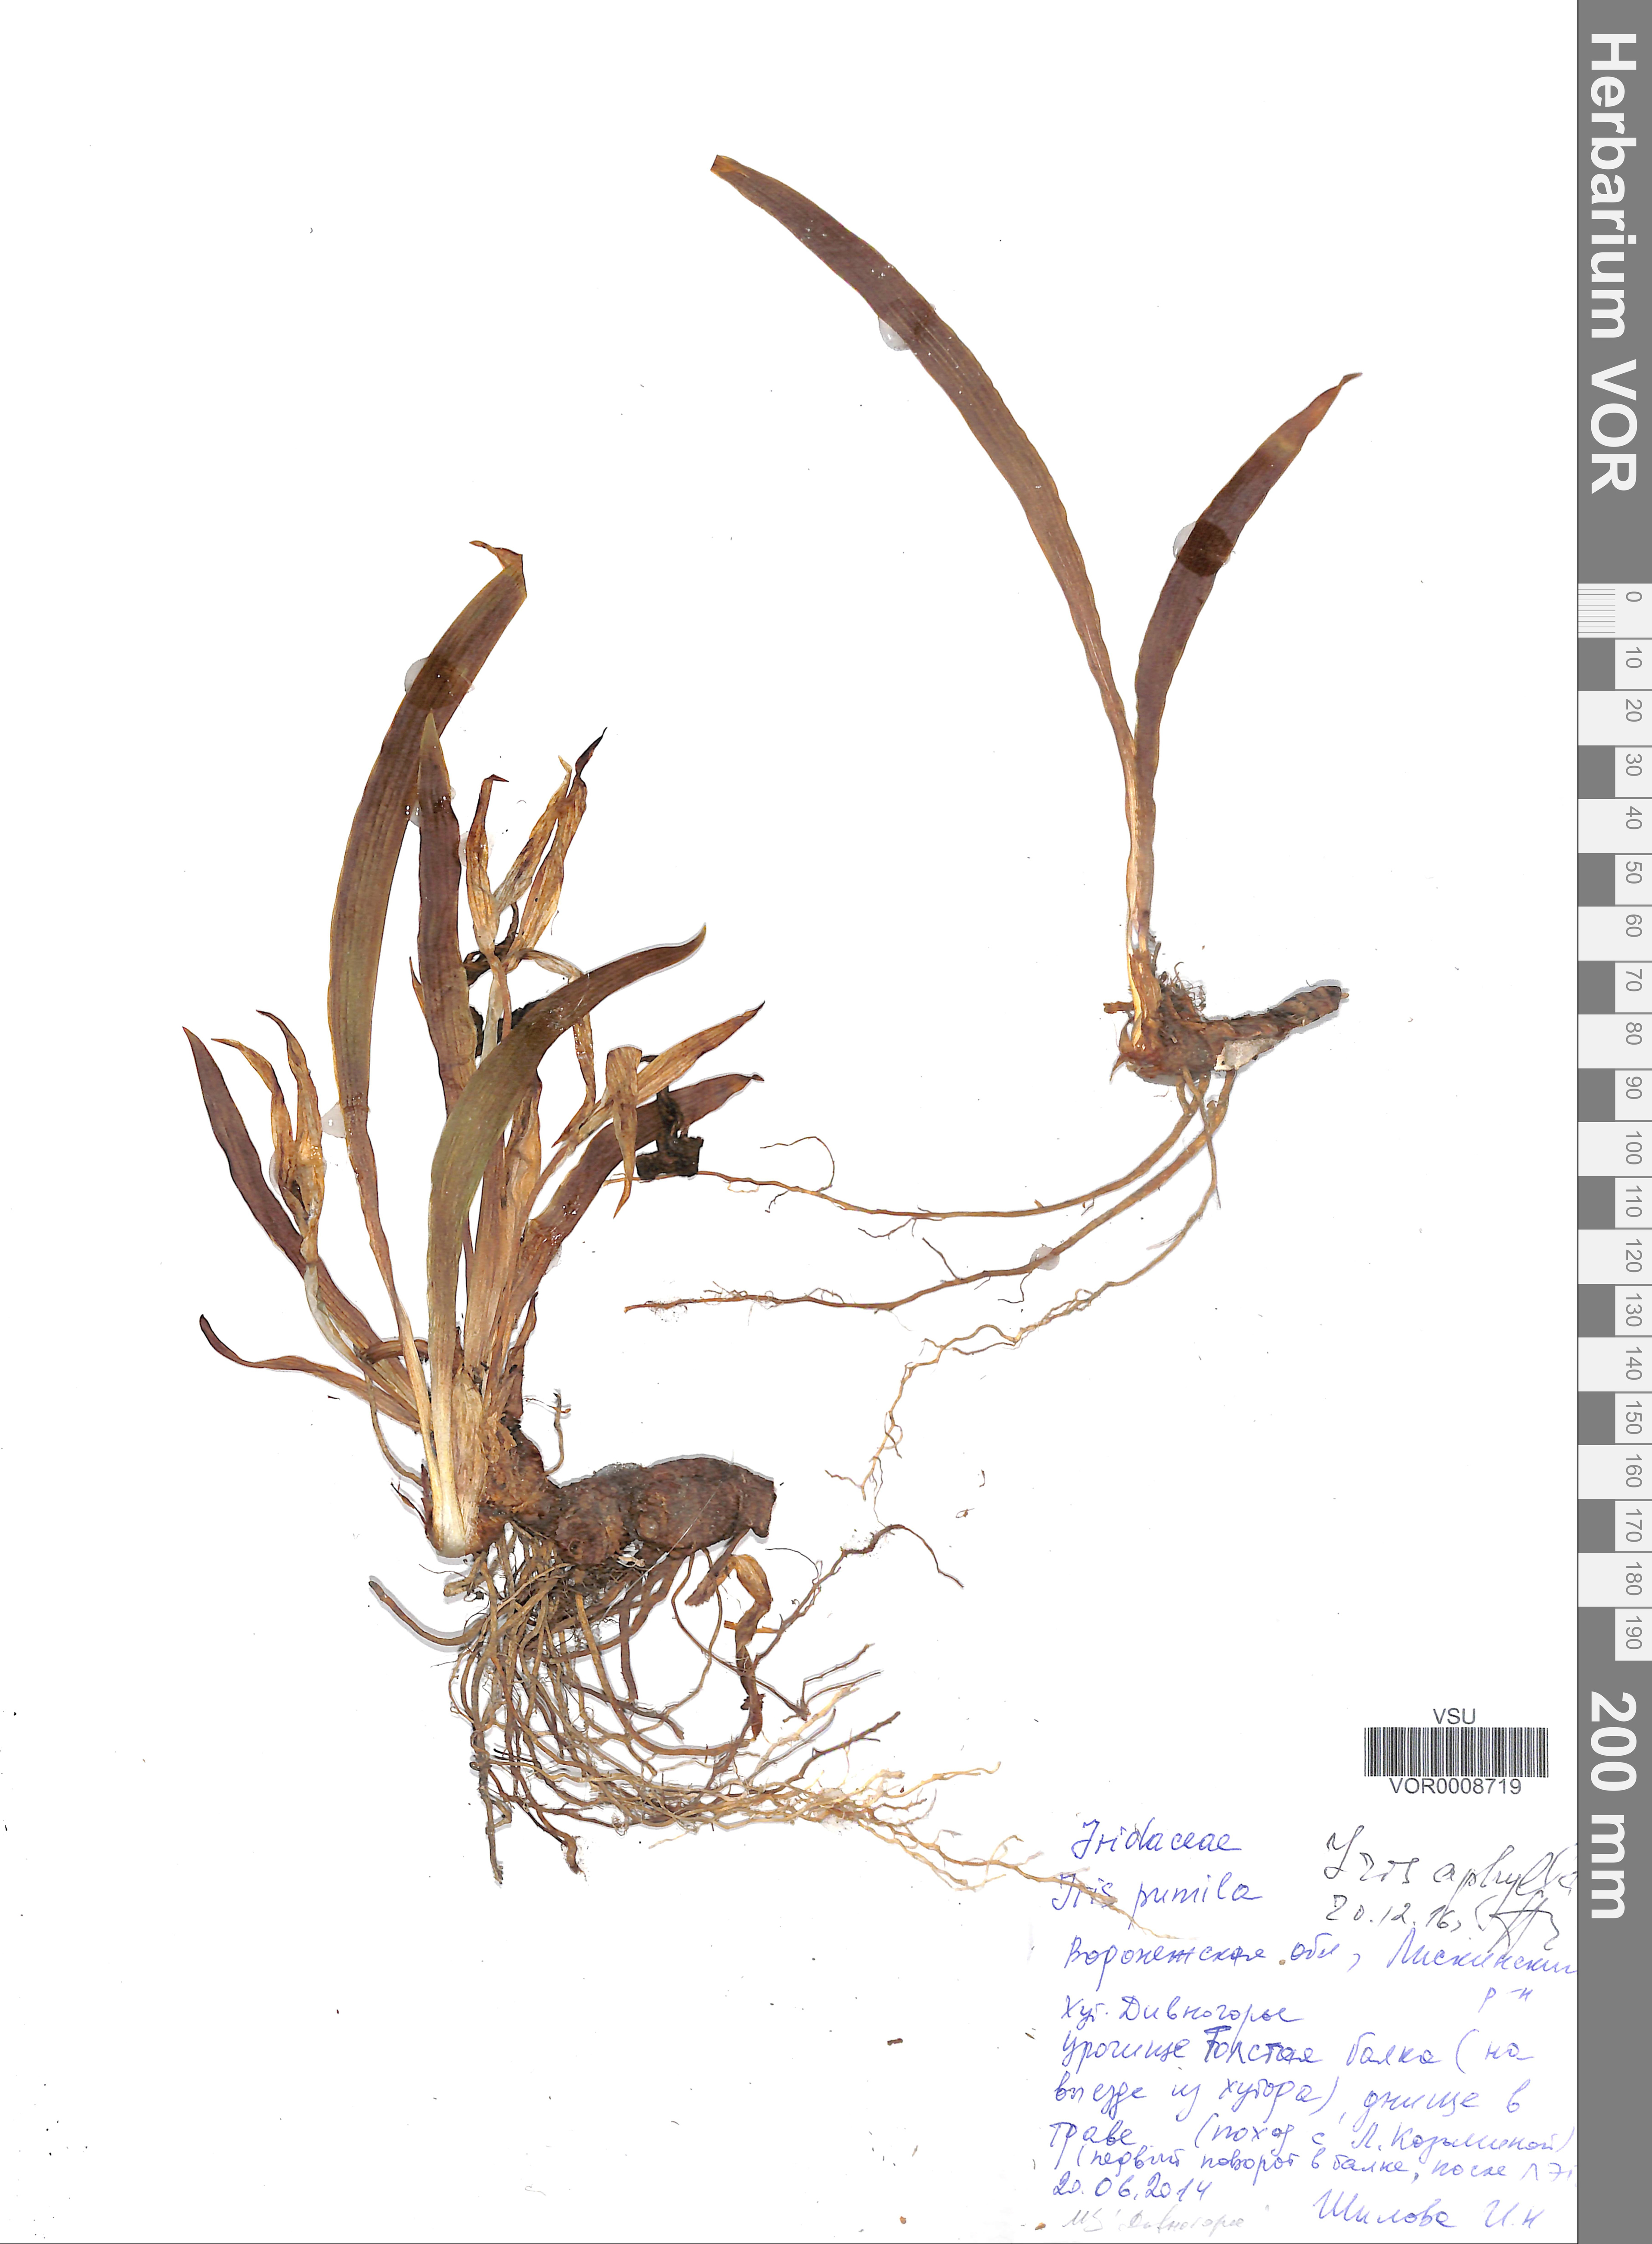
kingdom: Plantae
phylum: Tracheophyta
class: Liliopsida
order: Asparagales
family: Iridaceae
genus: Iris
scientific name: Iris aphylla
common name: Stool iris
